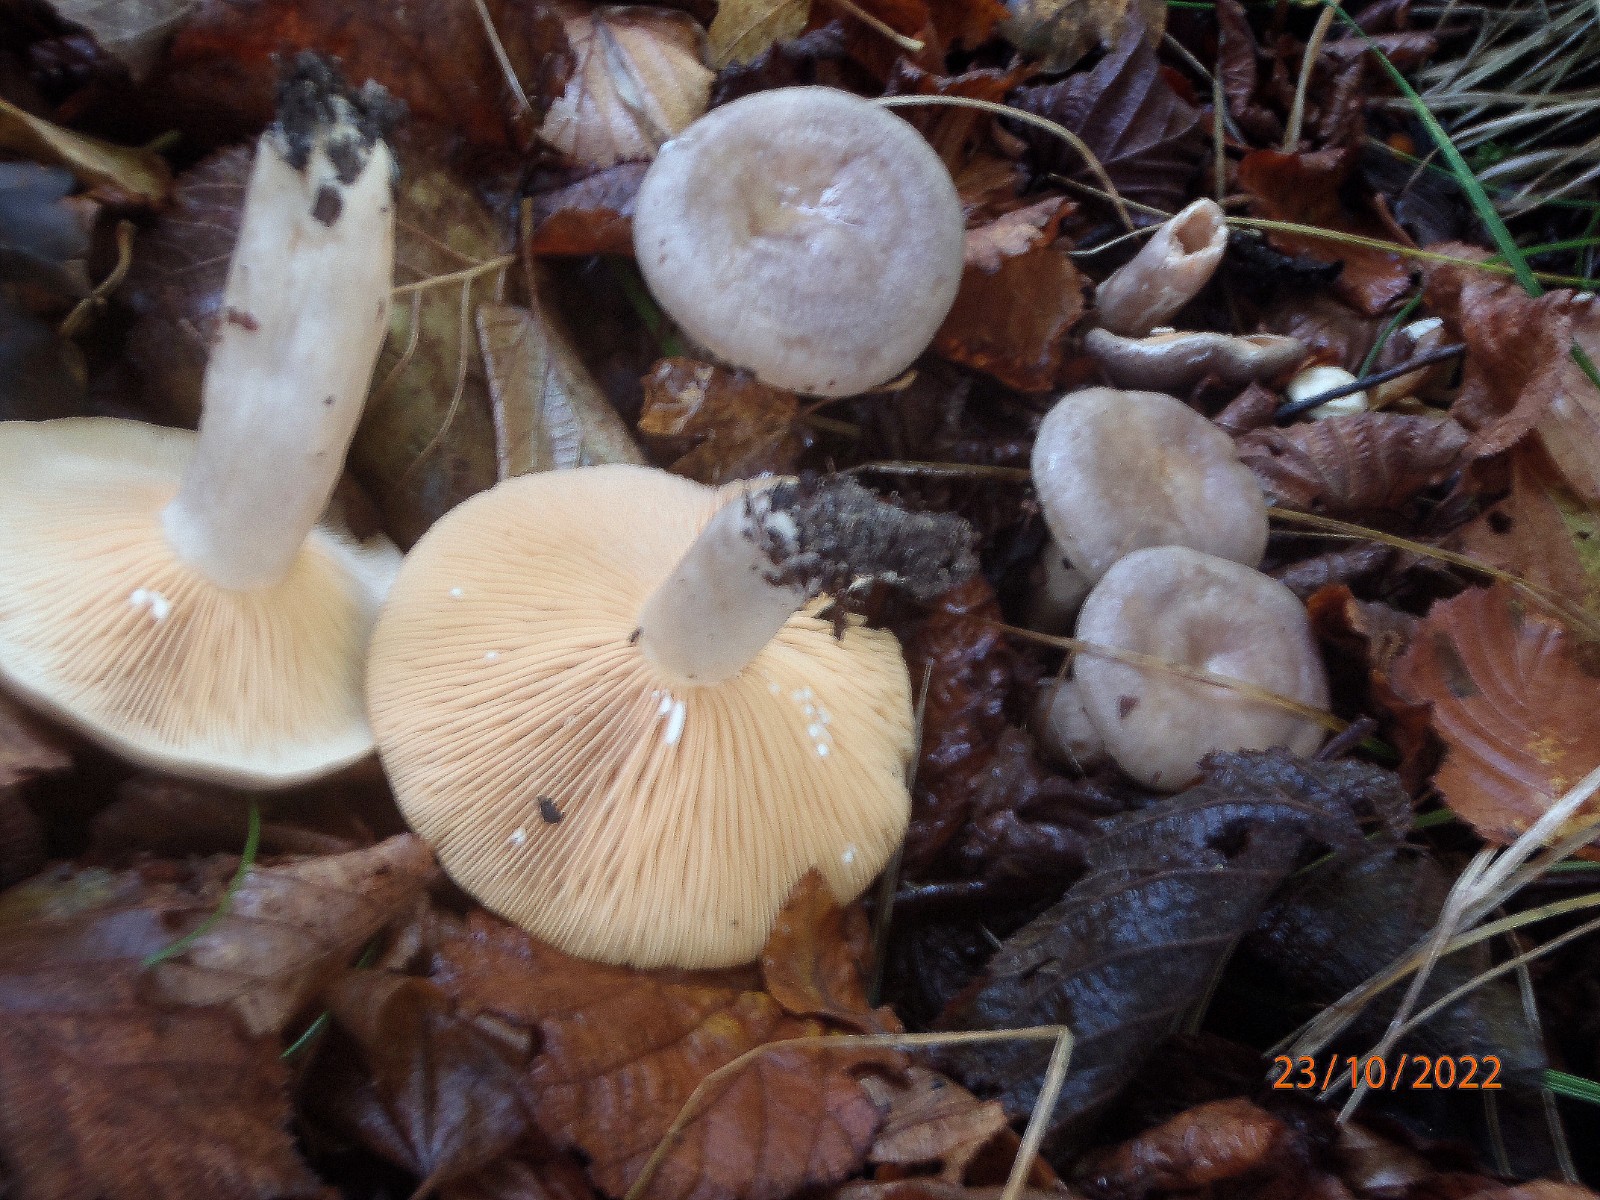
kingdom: Fungi
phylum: Basidiomycota
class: Agaricomycetes
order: Russulales
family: Russulaceae
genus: Lactarius
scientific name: Lactarius pyrogalus
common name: hassel-mælkehat
